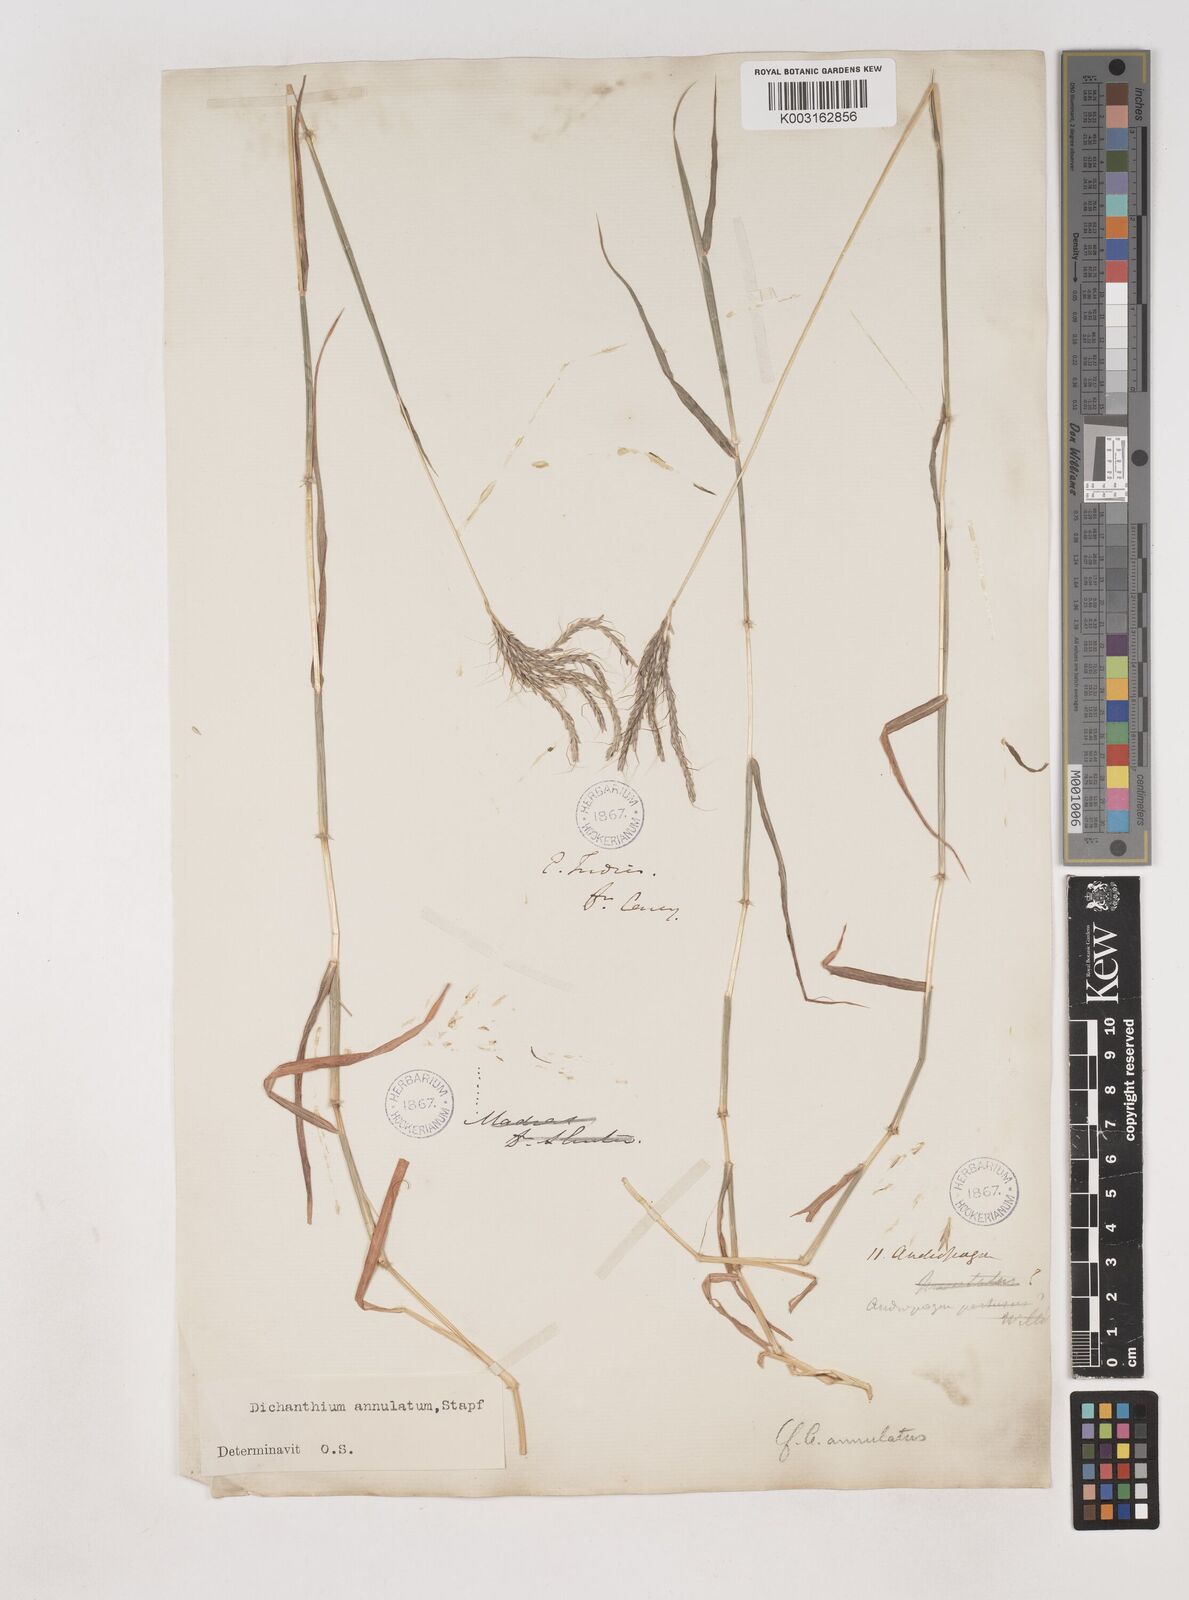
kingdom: Plantae
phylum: Tracheophyta
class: Liliopsida
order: Poales
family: Poaceae
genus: Dichanthium
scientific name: Dichanthium annulatum
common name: Kleberg's bluestem
